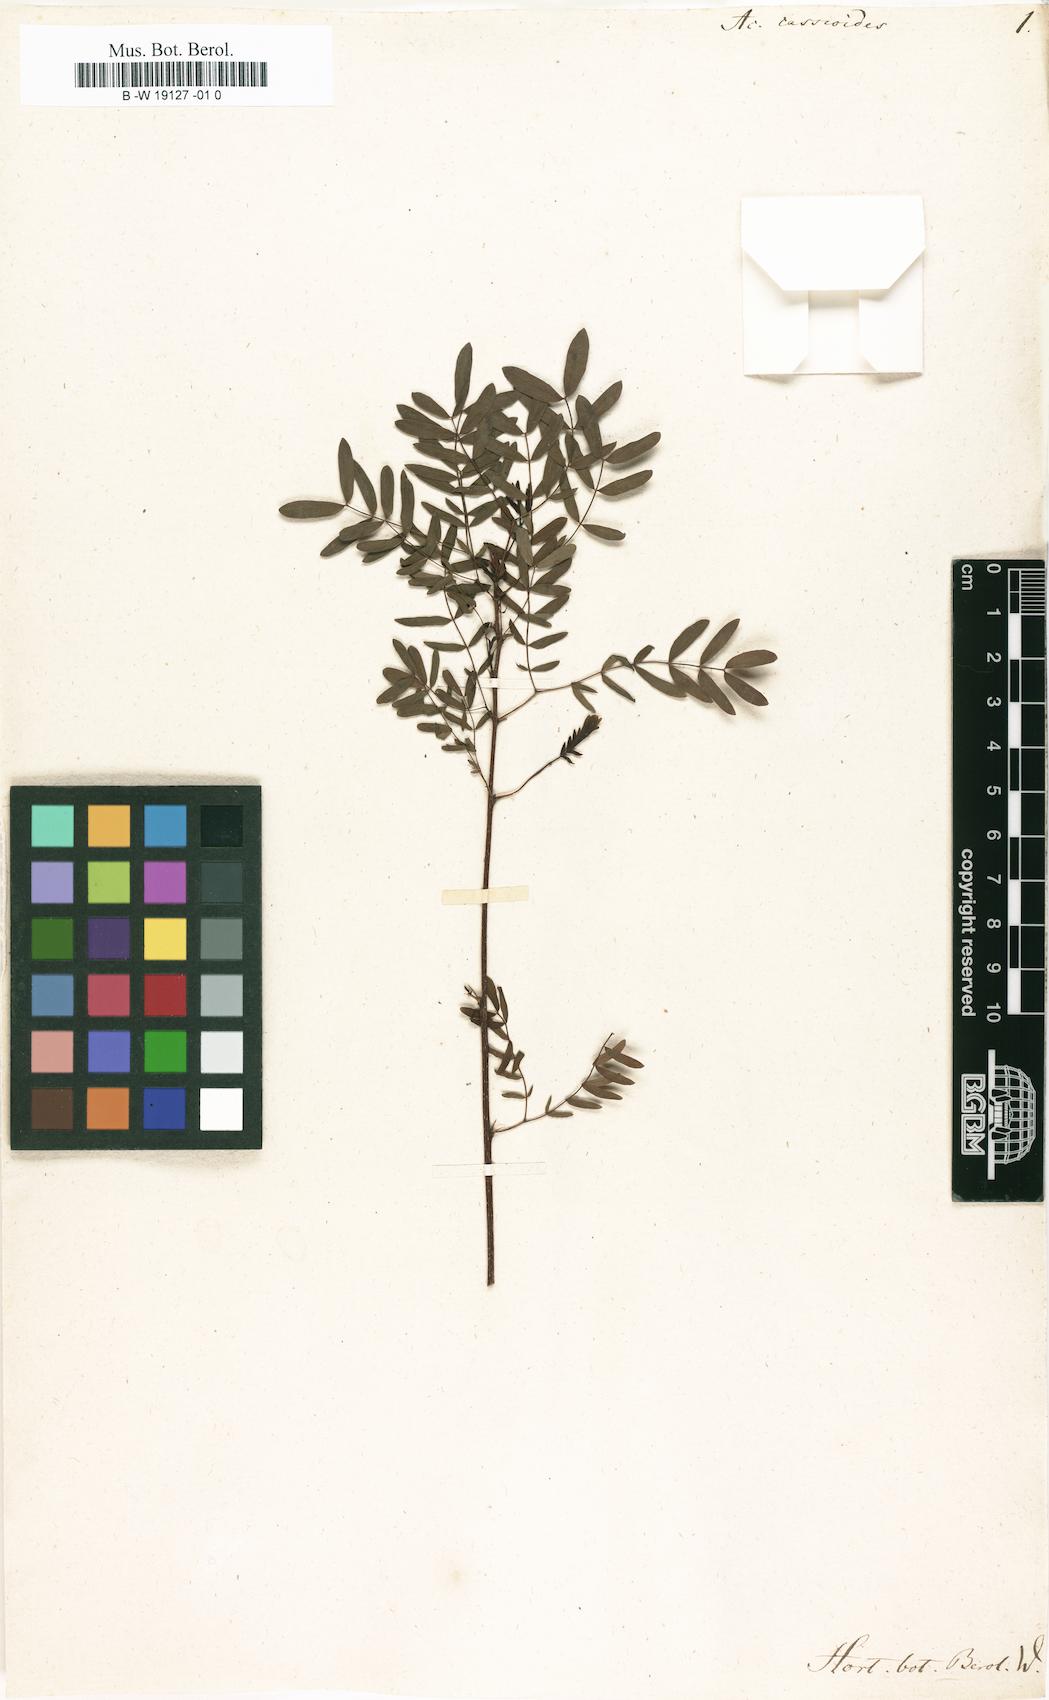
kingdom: Plantae
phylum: Tracheophyta
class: Magnoliopsida
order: Fabales
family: Fabaceae
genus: Acacia
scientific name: Acacia peruviana
